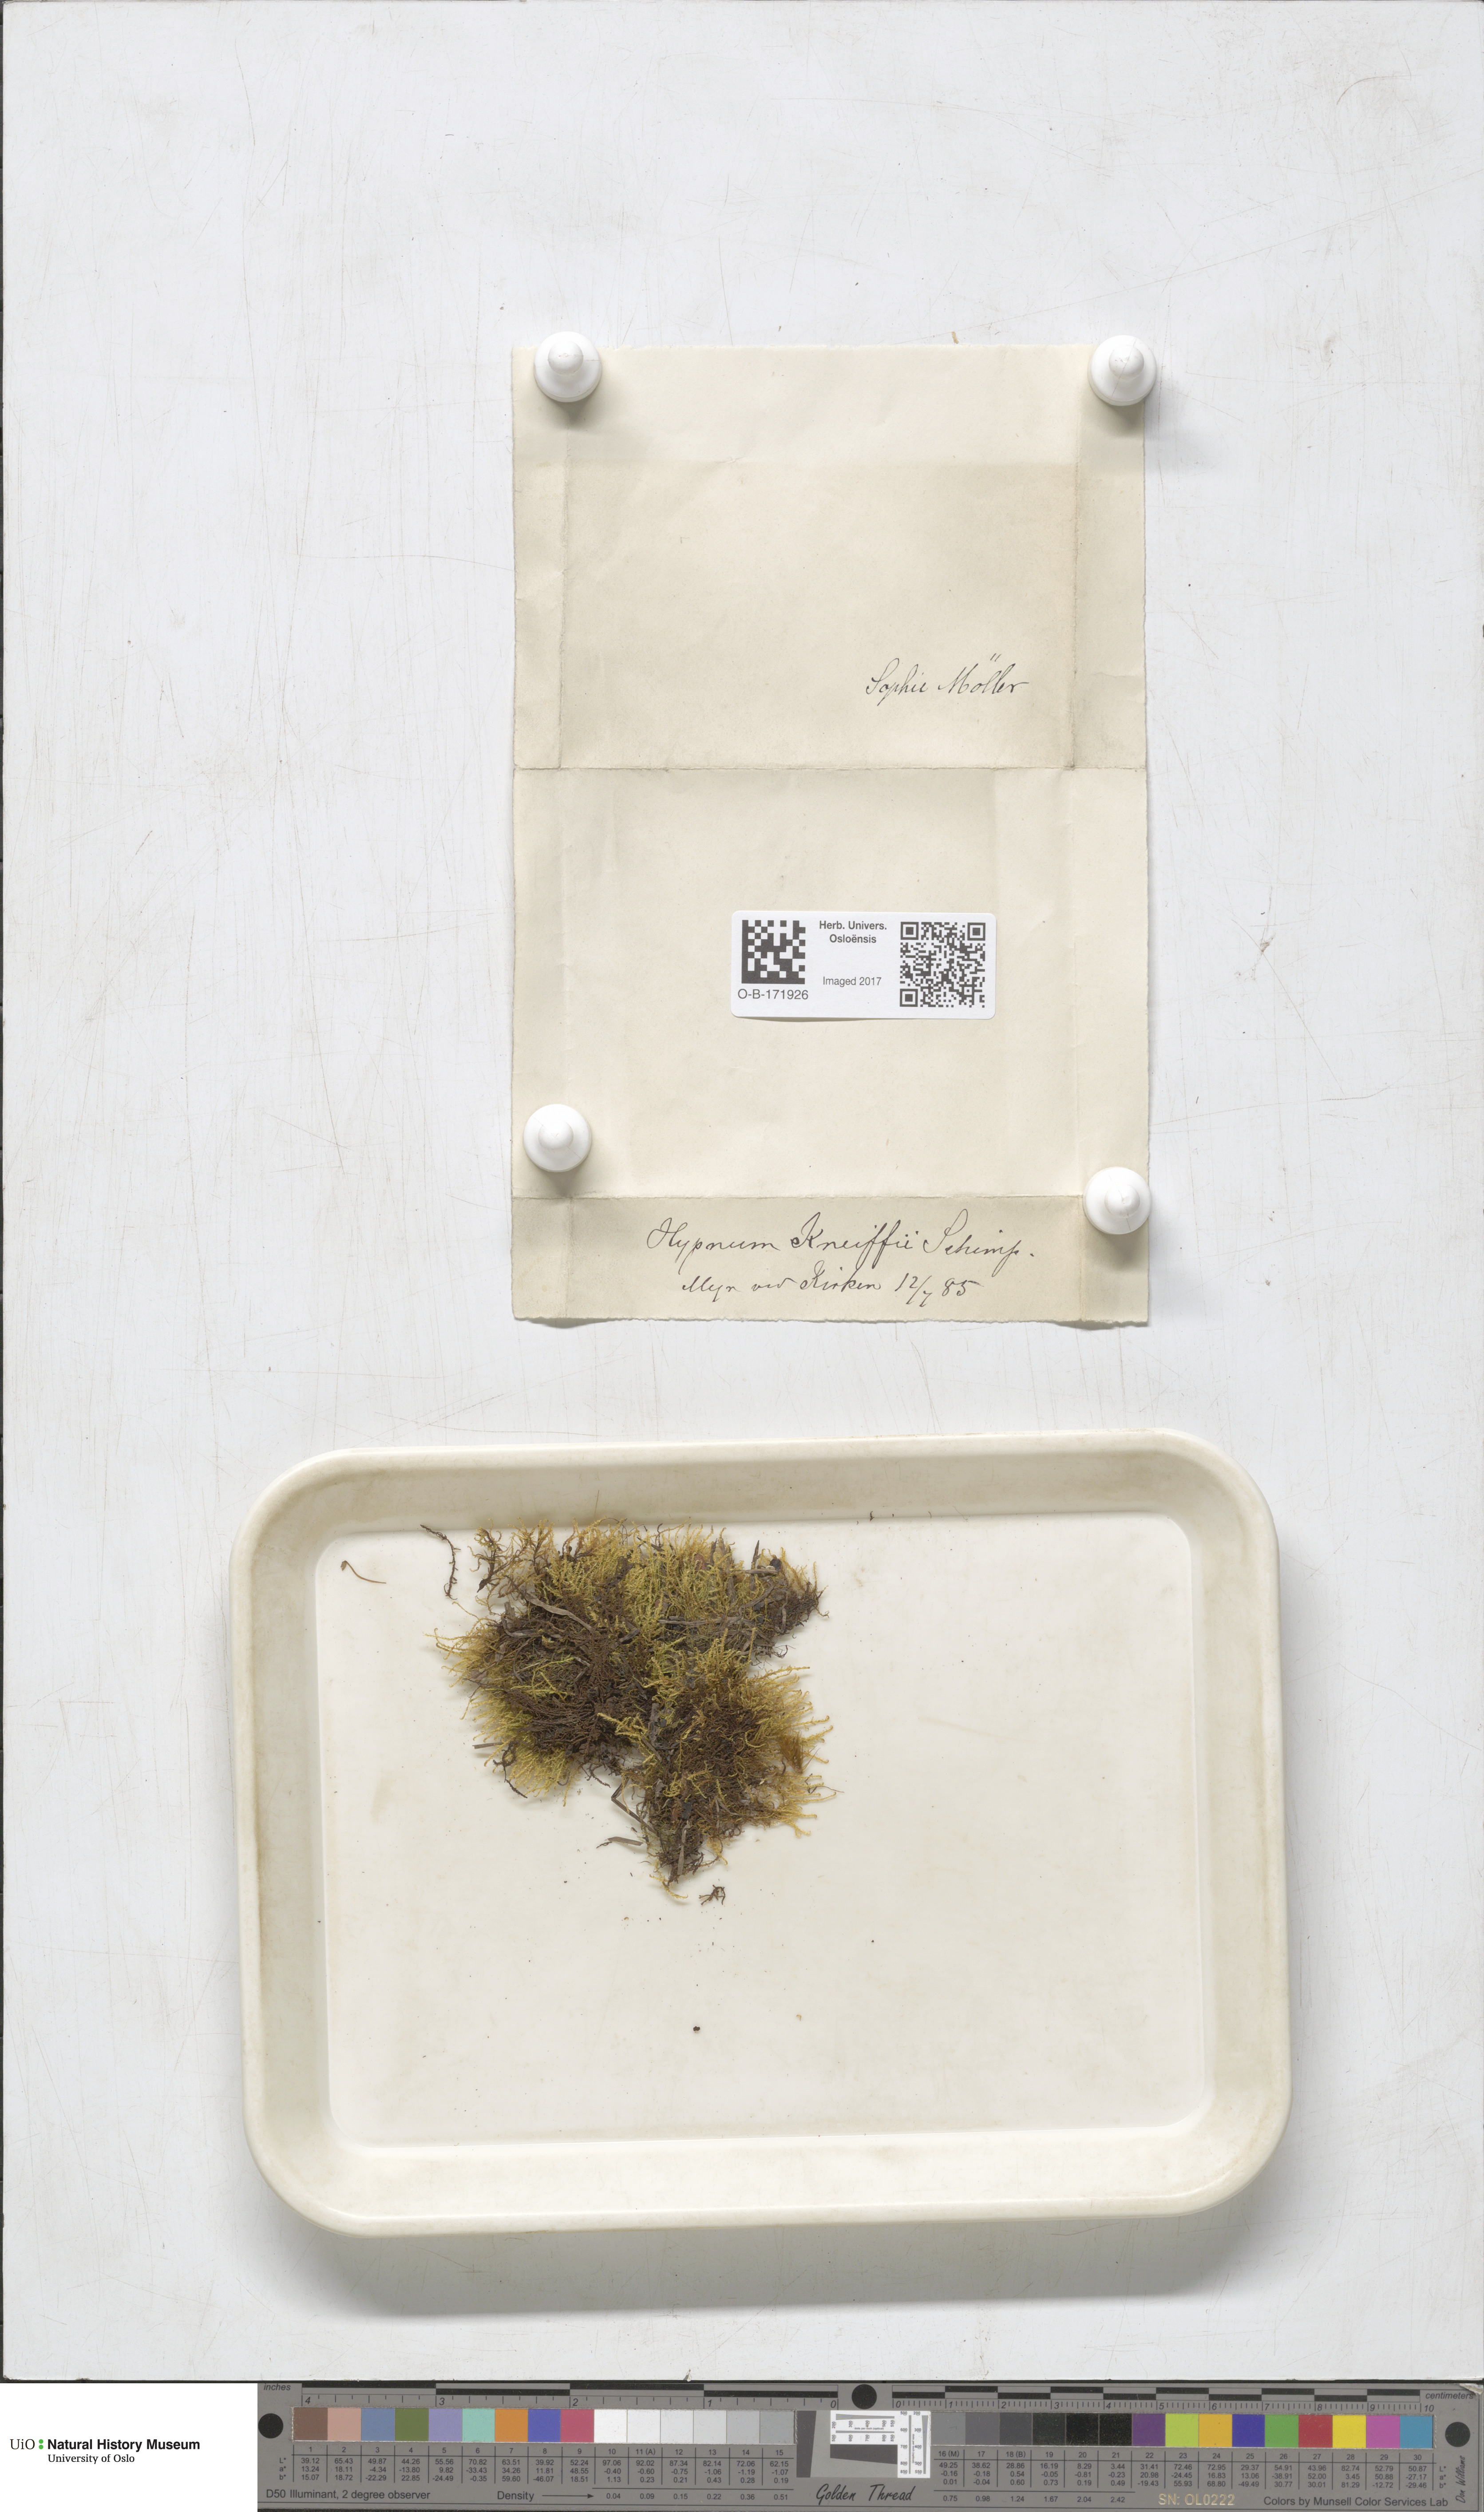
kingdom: Plantae
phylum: Bryophyta
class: Bryopsida
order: Hypnales
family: Amblystegiaceae
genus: Drepanocladus
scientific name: Drepanocladus aduncus
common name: Knieff's hook moss
